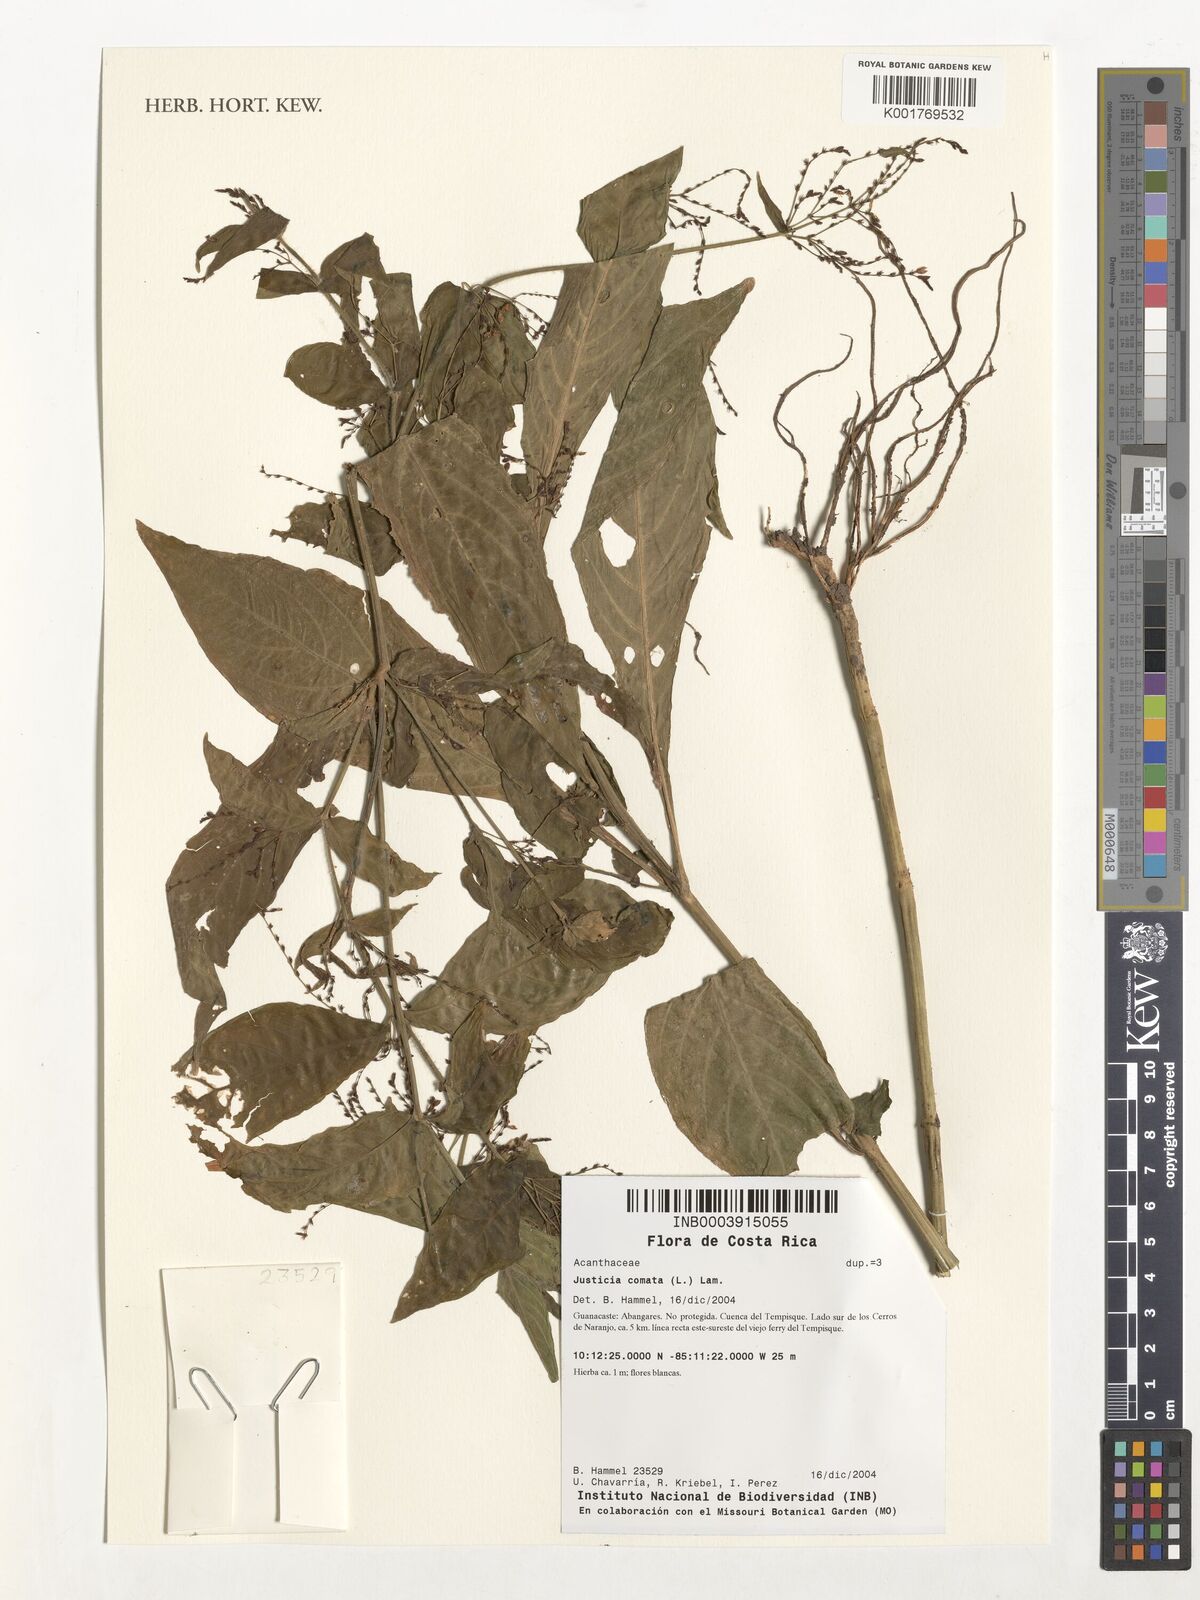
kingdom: Plantae
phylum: Tracheophyta
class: Magnoliopsida
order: Lamiales
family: Acanthaceae
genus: Dianthera
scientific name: Dianthera comata
